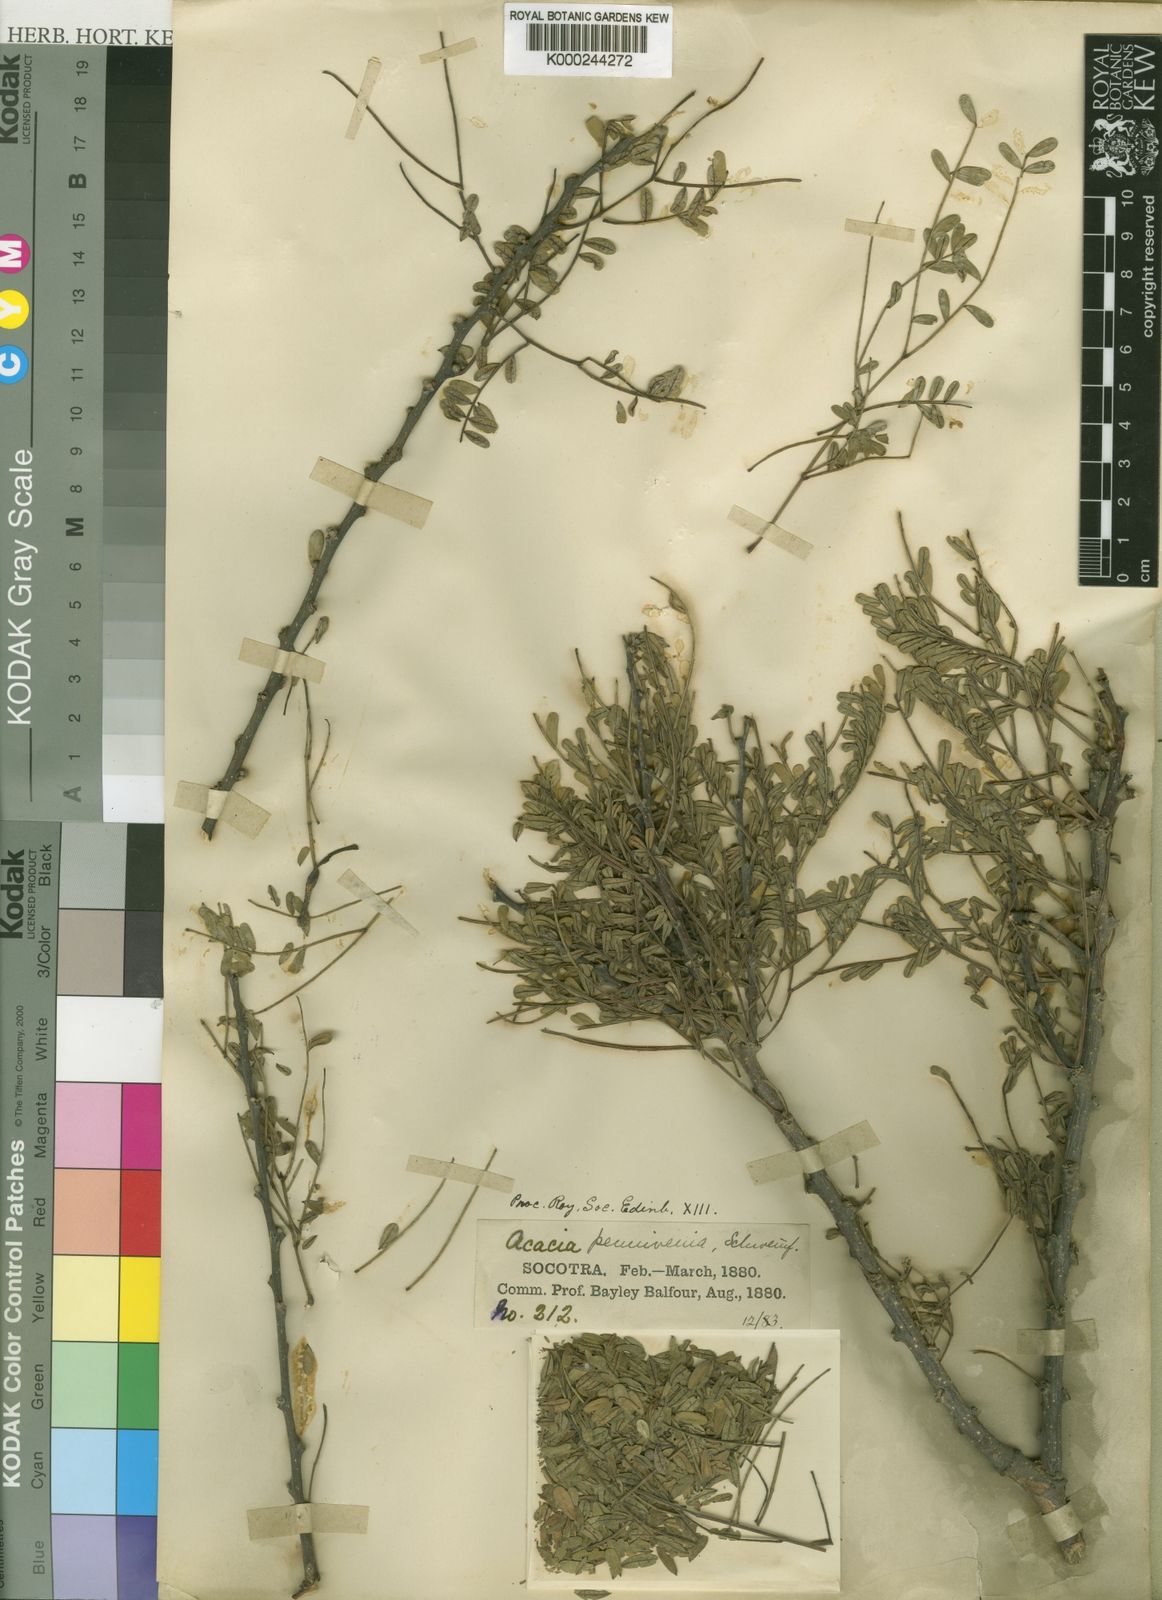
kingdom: Plantae
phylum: Tracheophyta
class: Magnoliopsida
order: Fabales
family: Fabaceae
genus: Acacia
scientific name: Acacia
